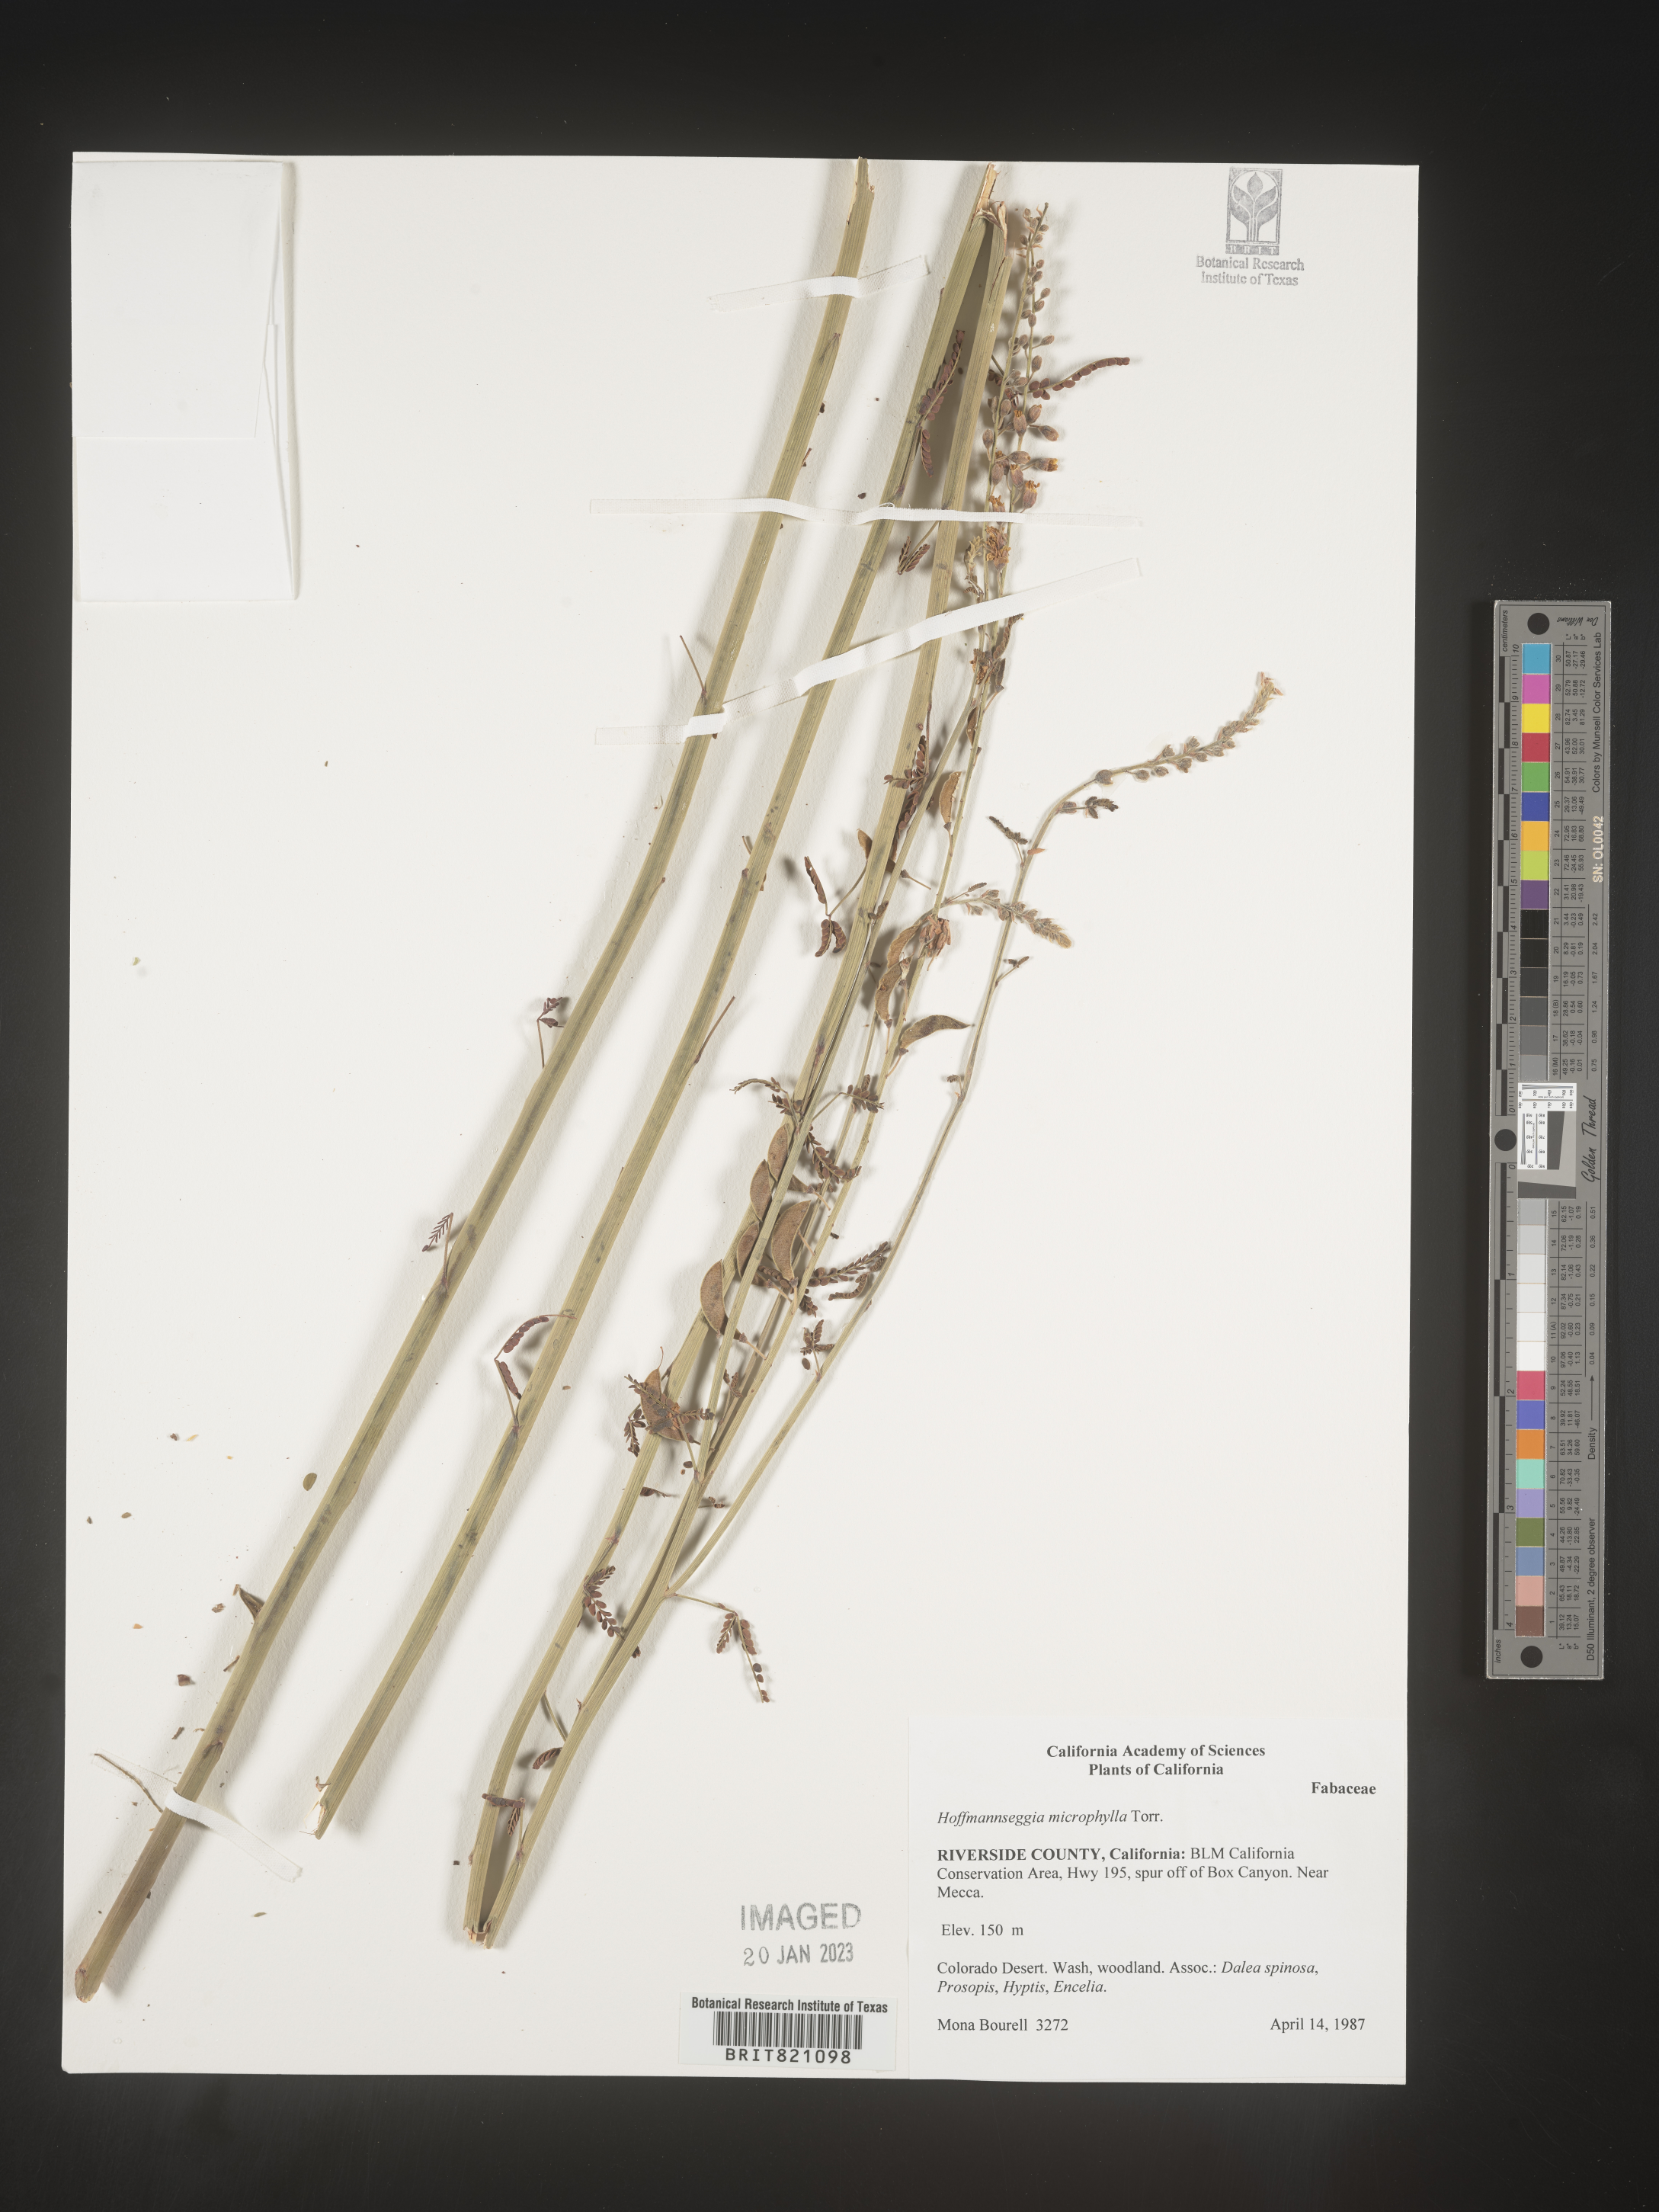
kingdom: Plantae
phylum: Tracheophyta
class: Magnoliopsida
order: Fabales
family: Fabaceae
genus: Hoffmannseggia
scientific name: Hoffmannseggia
